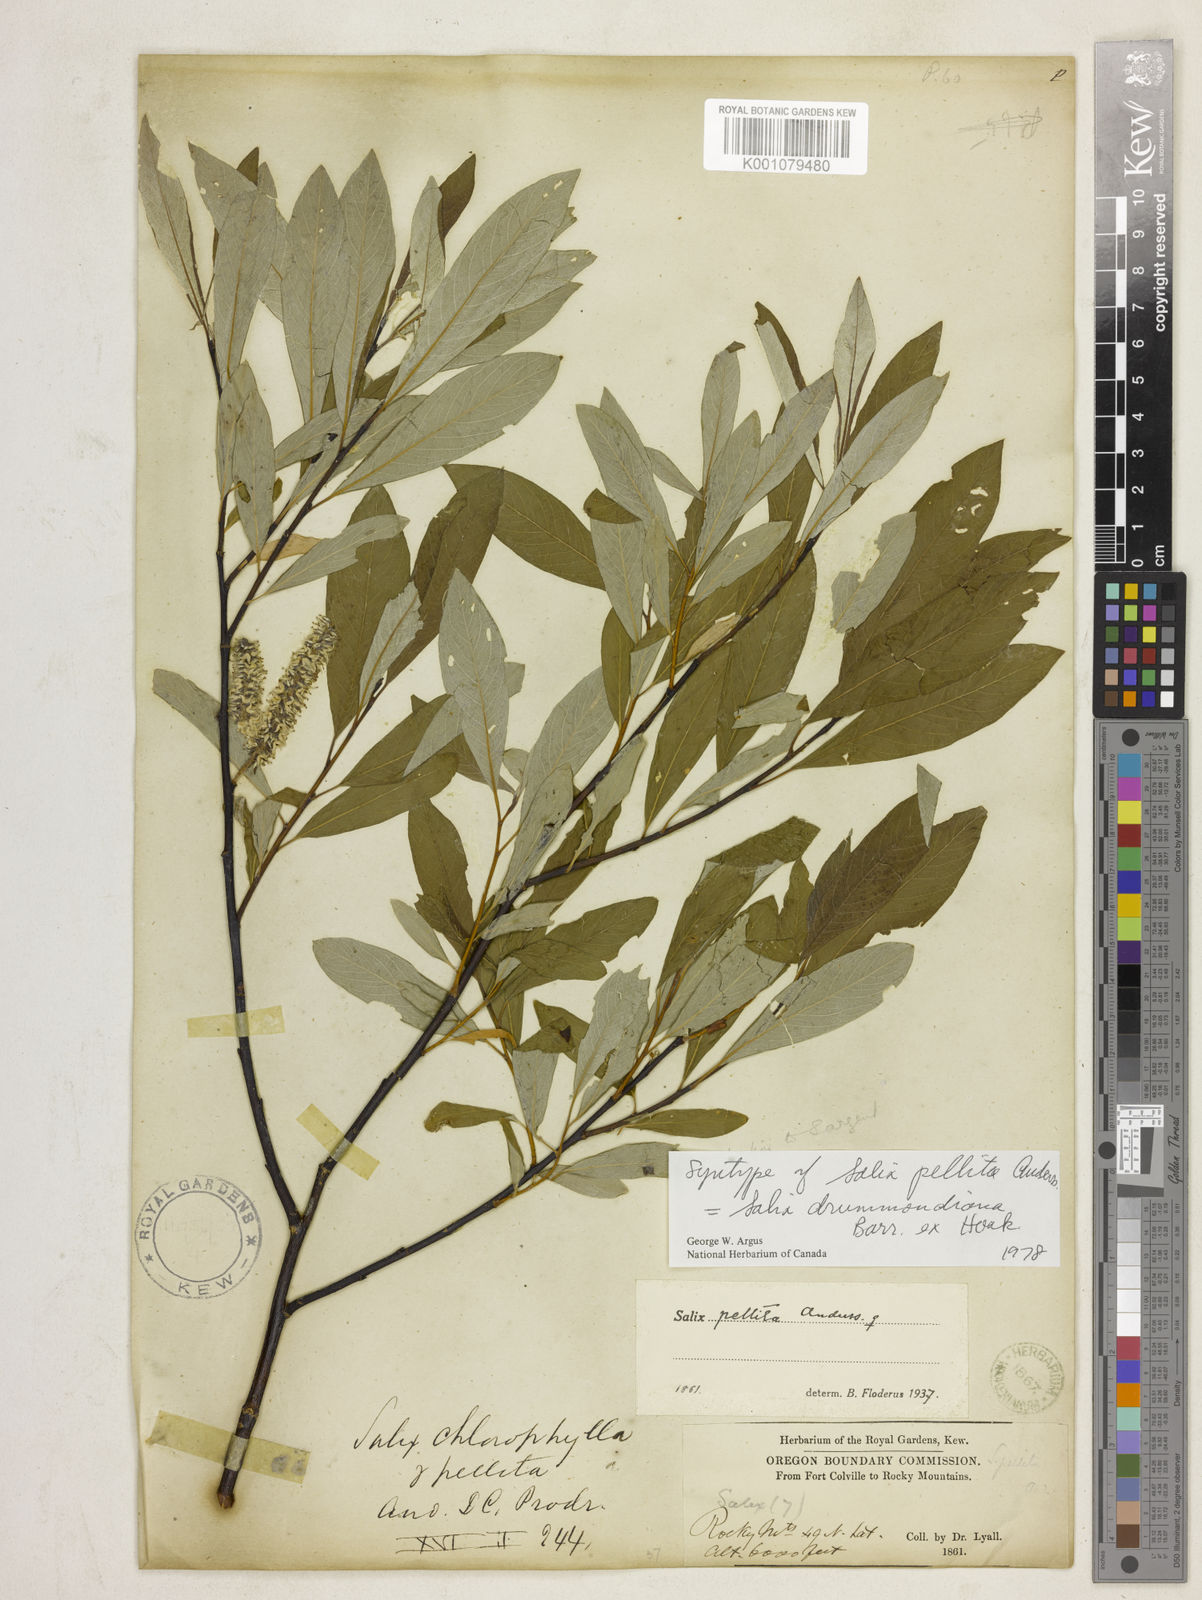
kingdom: Plantae
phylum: Tracheophyta
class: Magnoliopsida
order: Malpighiales
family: Salicaceae
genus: Salix
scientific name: Salix
